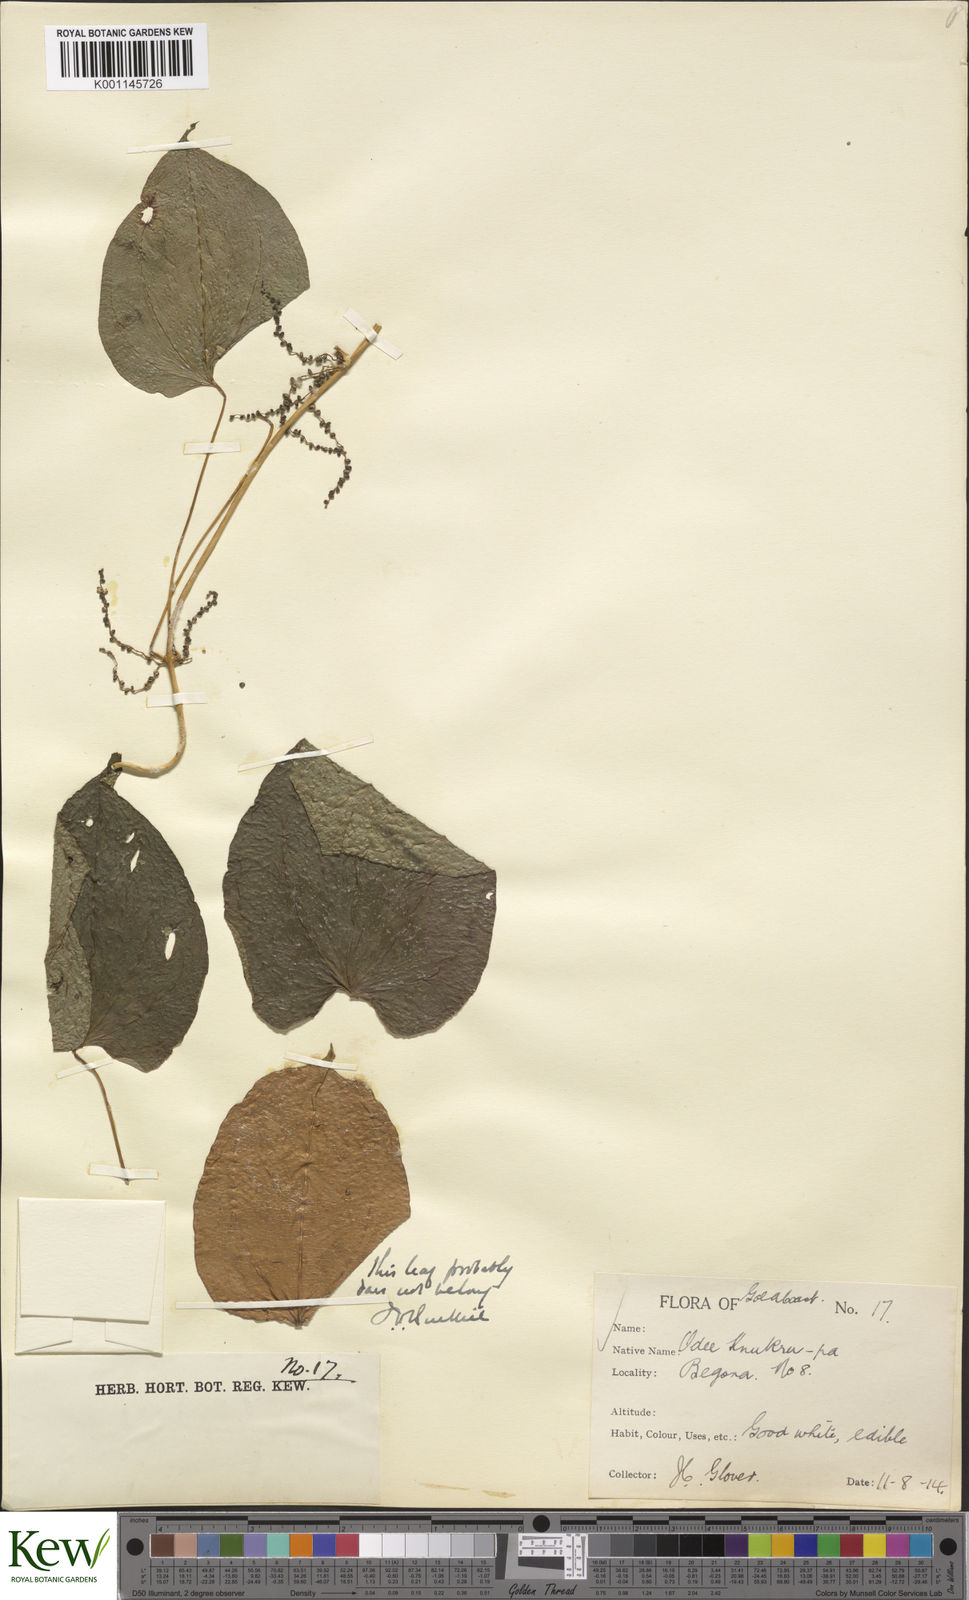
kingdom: Plantae
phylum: Tracheophyta
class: Liliopsida
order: Dioscoreales
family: Dioscoreaceae
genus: Dioscorea
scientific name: Dioscorea cayenensis
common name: Attoto yam
